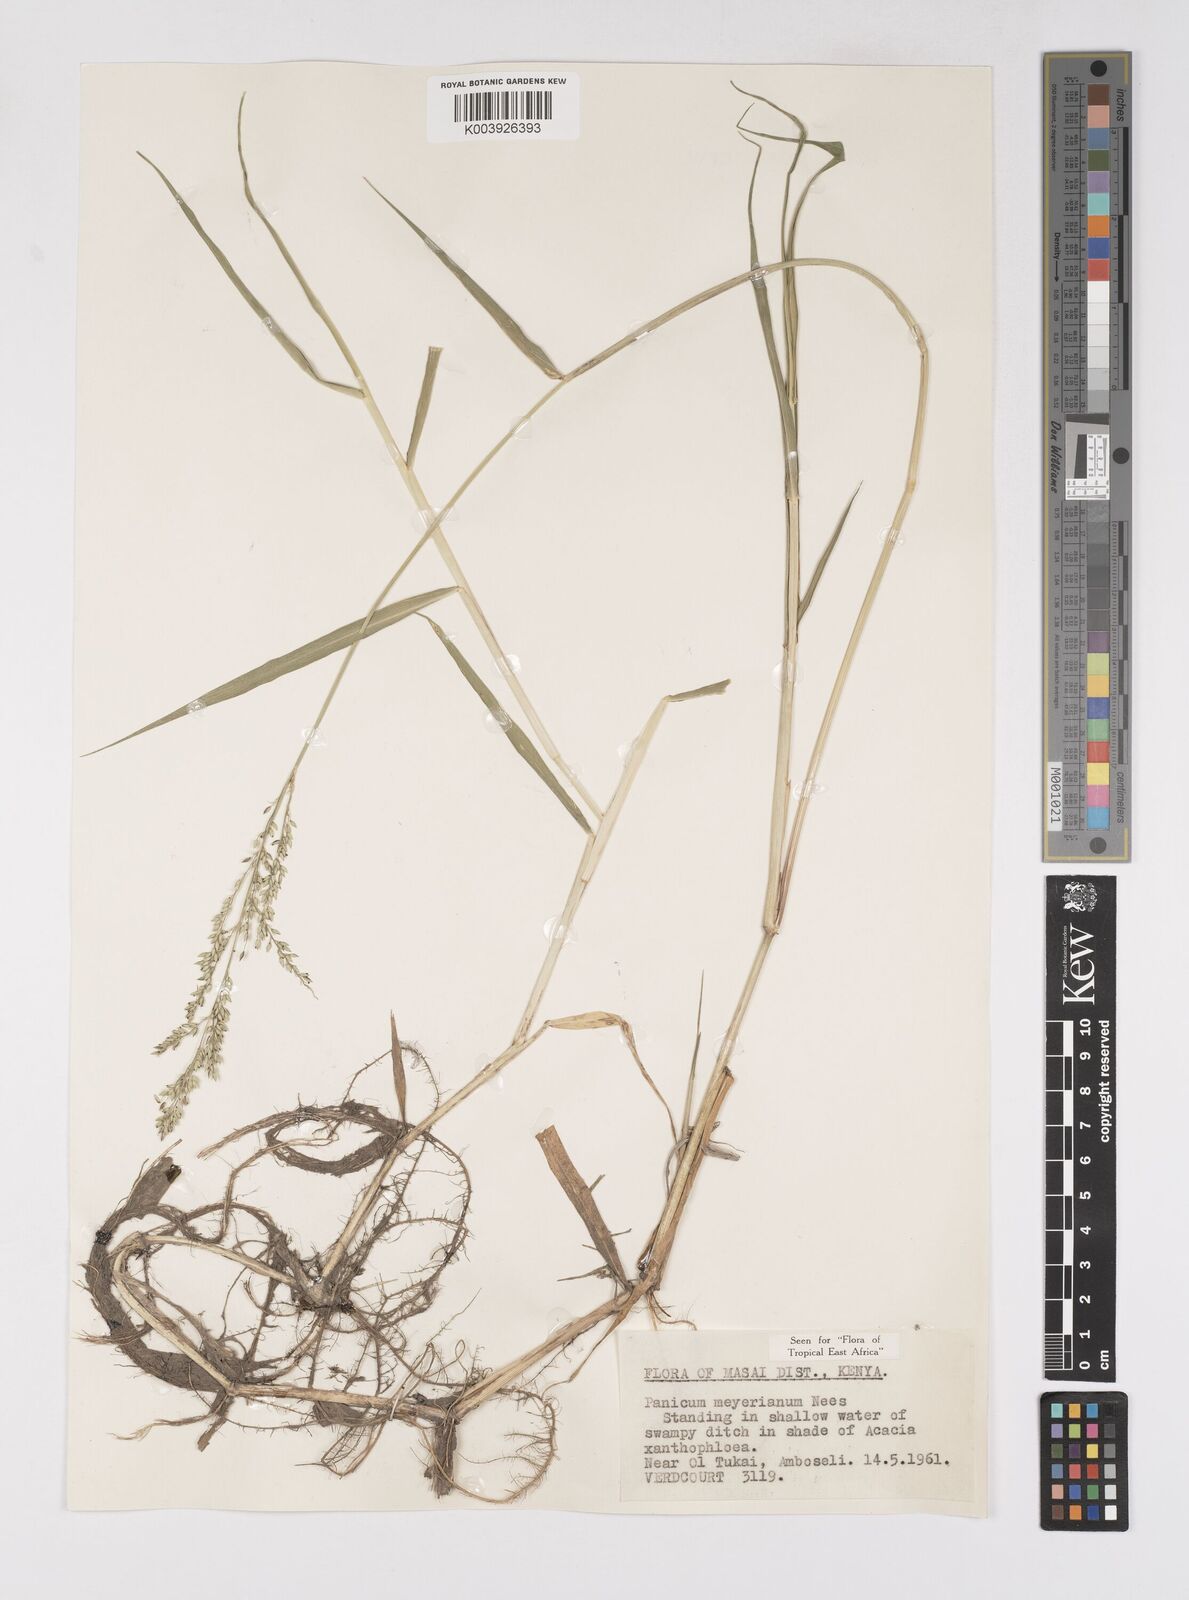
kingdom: Plantae
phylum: Tracheophyta
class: Liliopsida
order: Poales
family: Poaceae
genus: Eriochloa
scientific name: Eriochloa meyeriana
